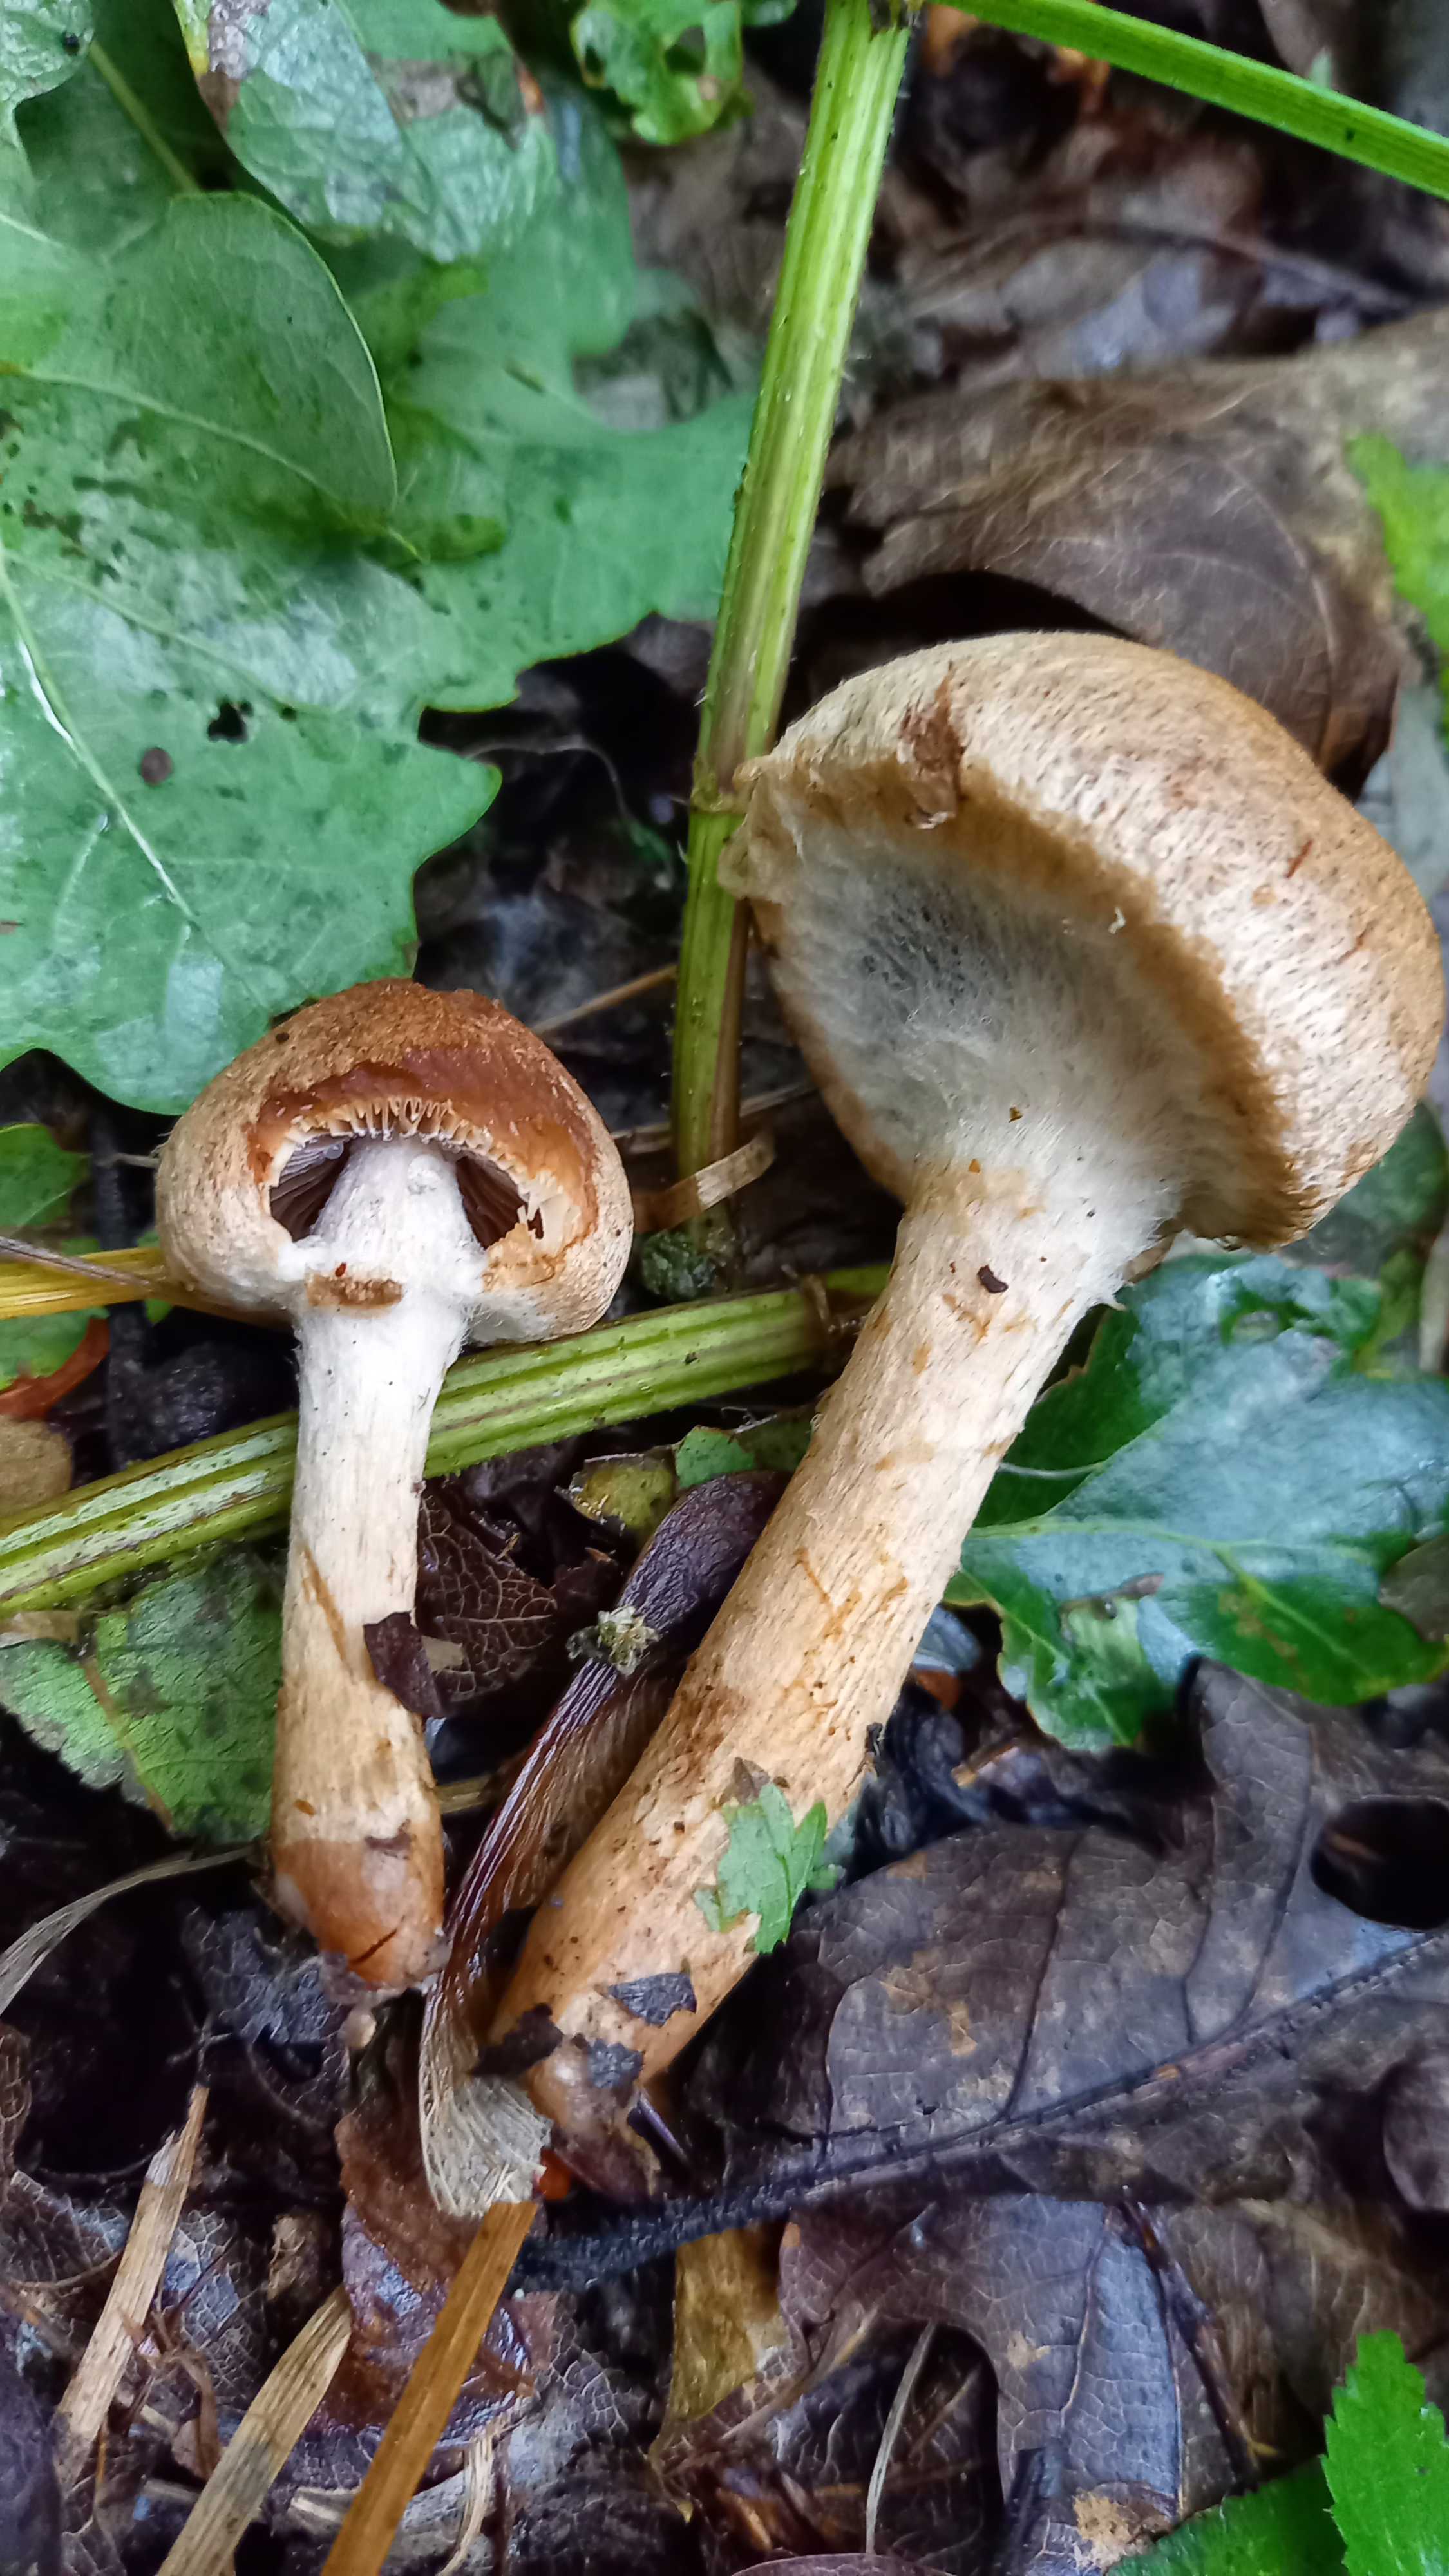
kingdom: Fungi
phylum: Basidiomycota
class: Agaricomycetes
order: Agaricales
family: Psathyrellaceae
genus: Lacrymaria
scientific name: Lacrymaria lacrymabunda
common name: grædende mørkhat
